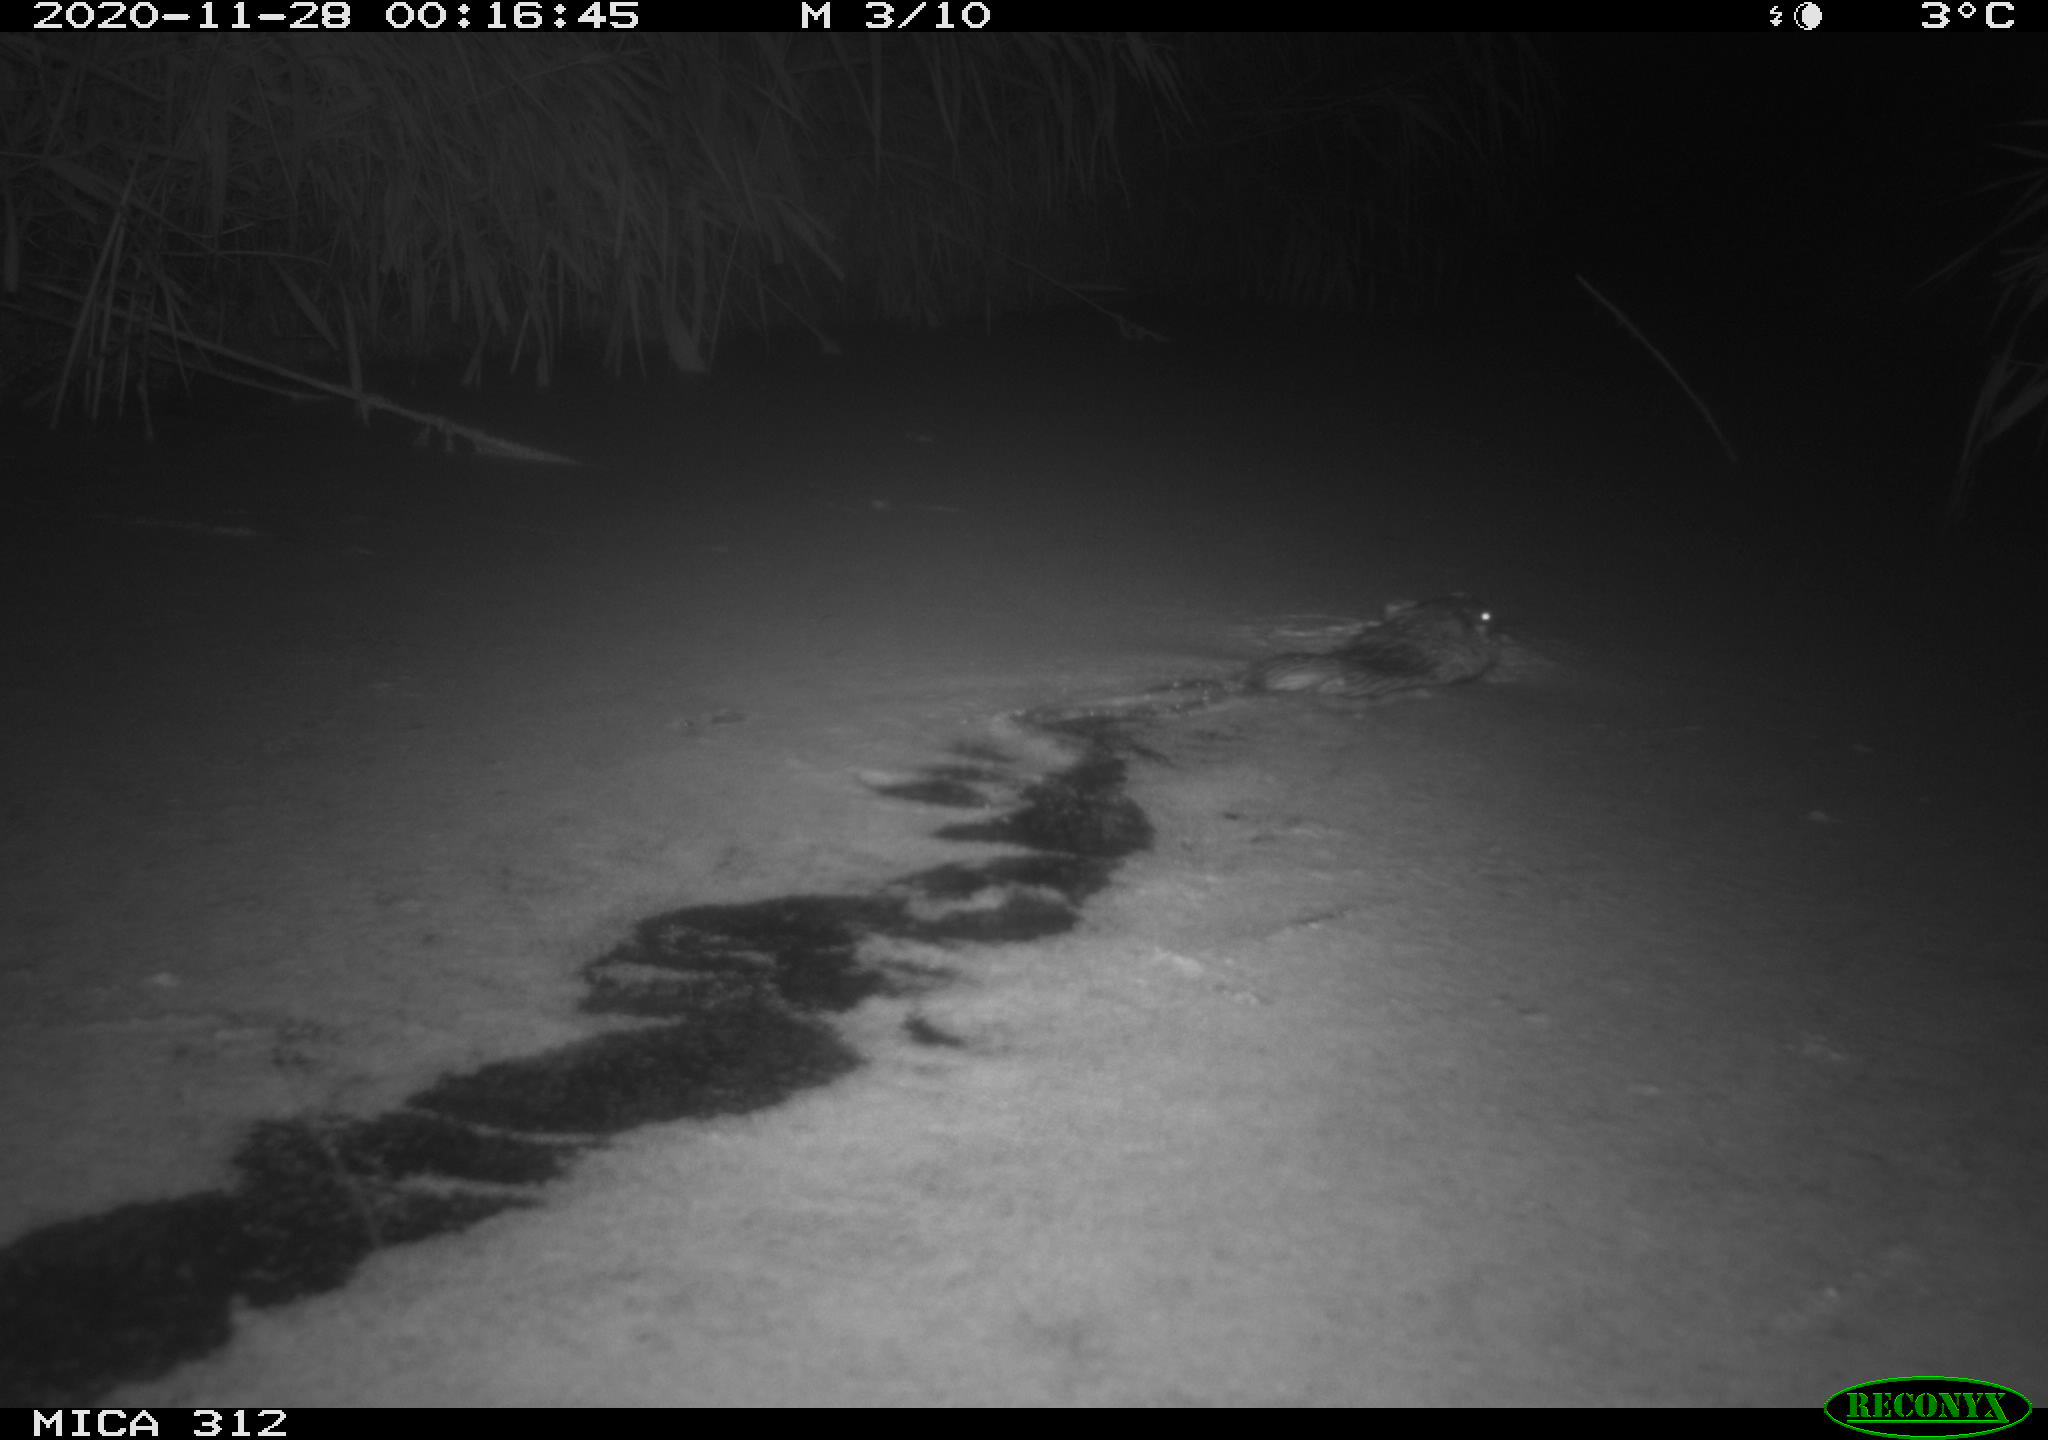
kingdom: Animalia
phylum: Chordata
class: Mammalia
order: Rodentia
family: Cricetidae
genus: Ondatra
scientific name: Ondatra zibethicus
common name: Muskrat
